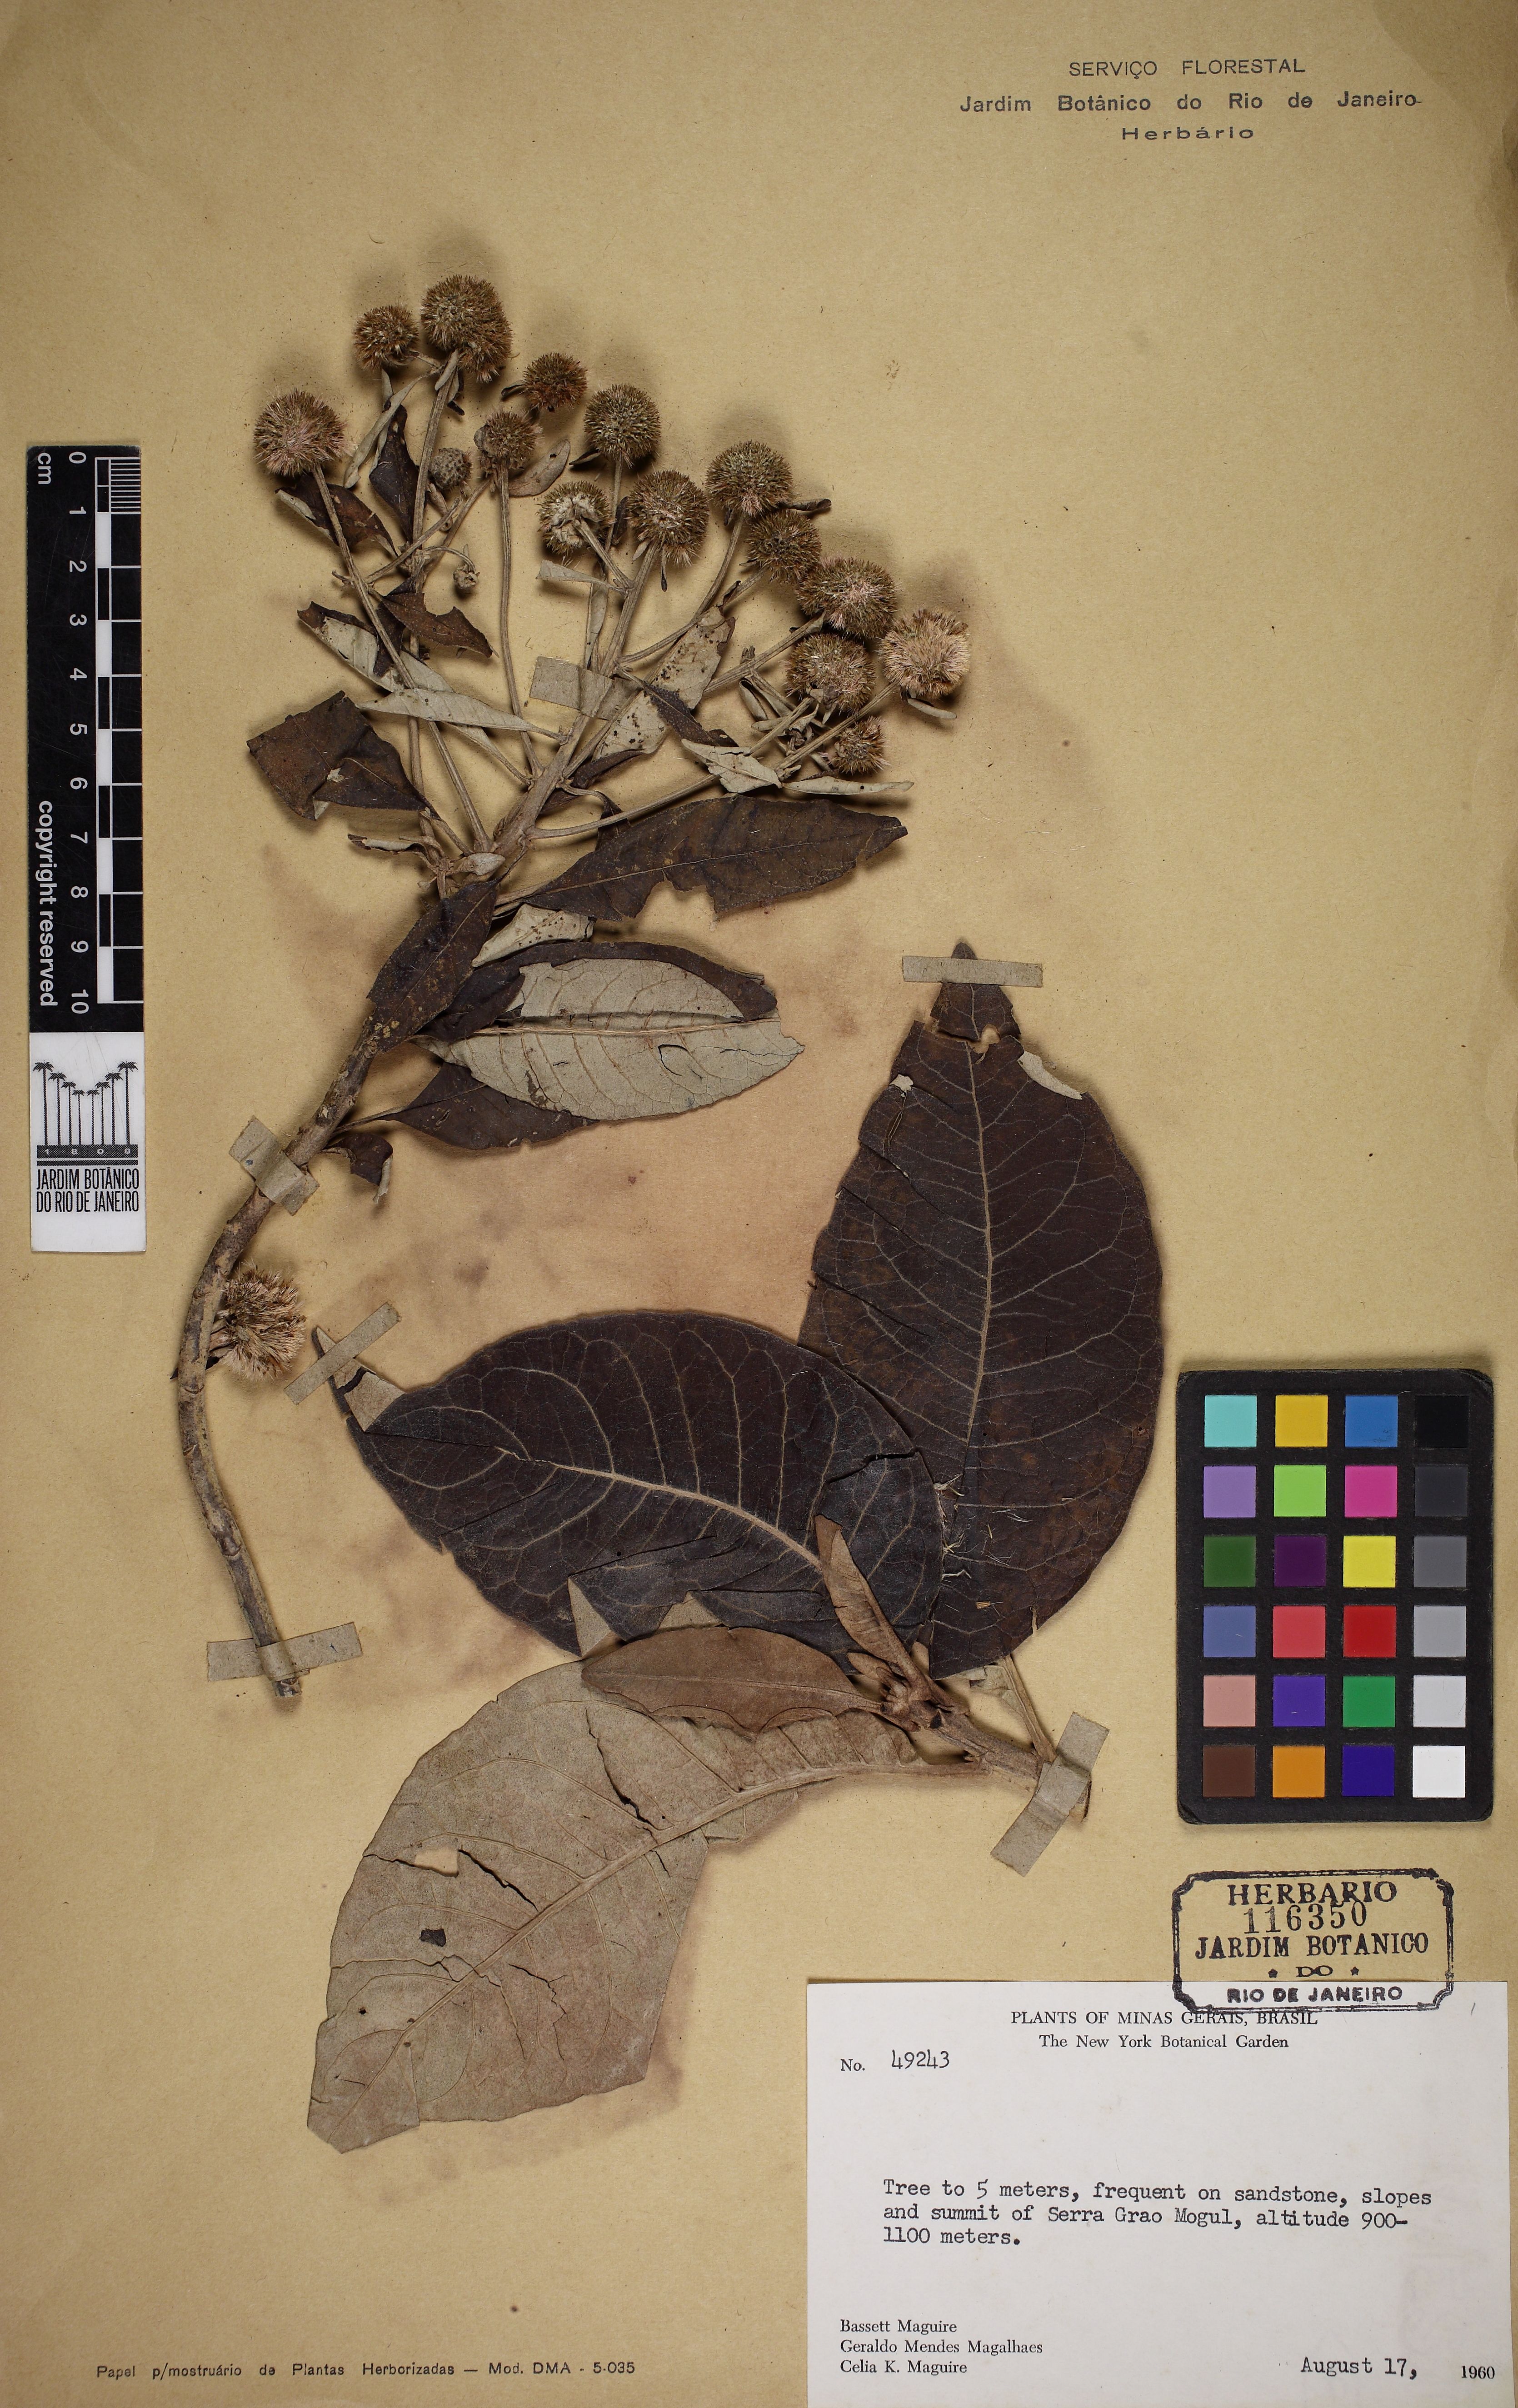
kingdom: Plantae
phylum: Tracheophyta
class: Magnoliopsida
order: Asterales
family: Asteraceae
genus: Eremanthus
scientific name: Eremanthus incanus
